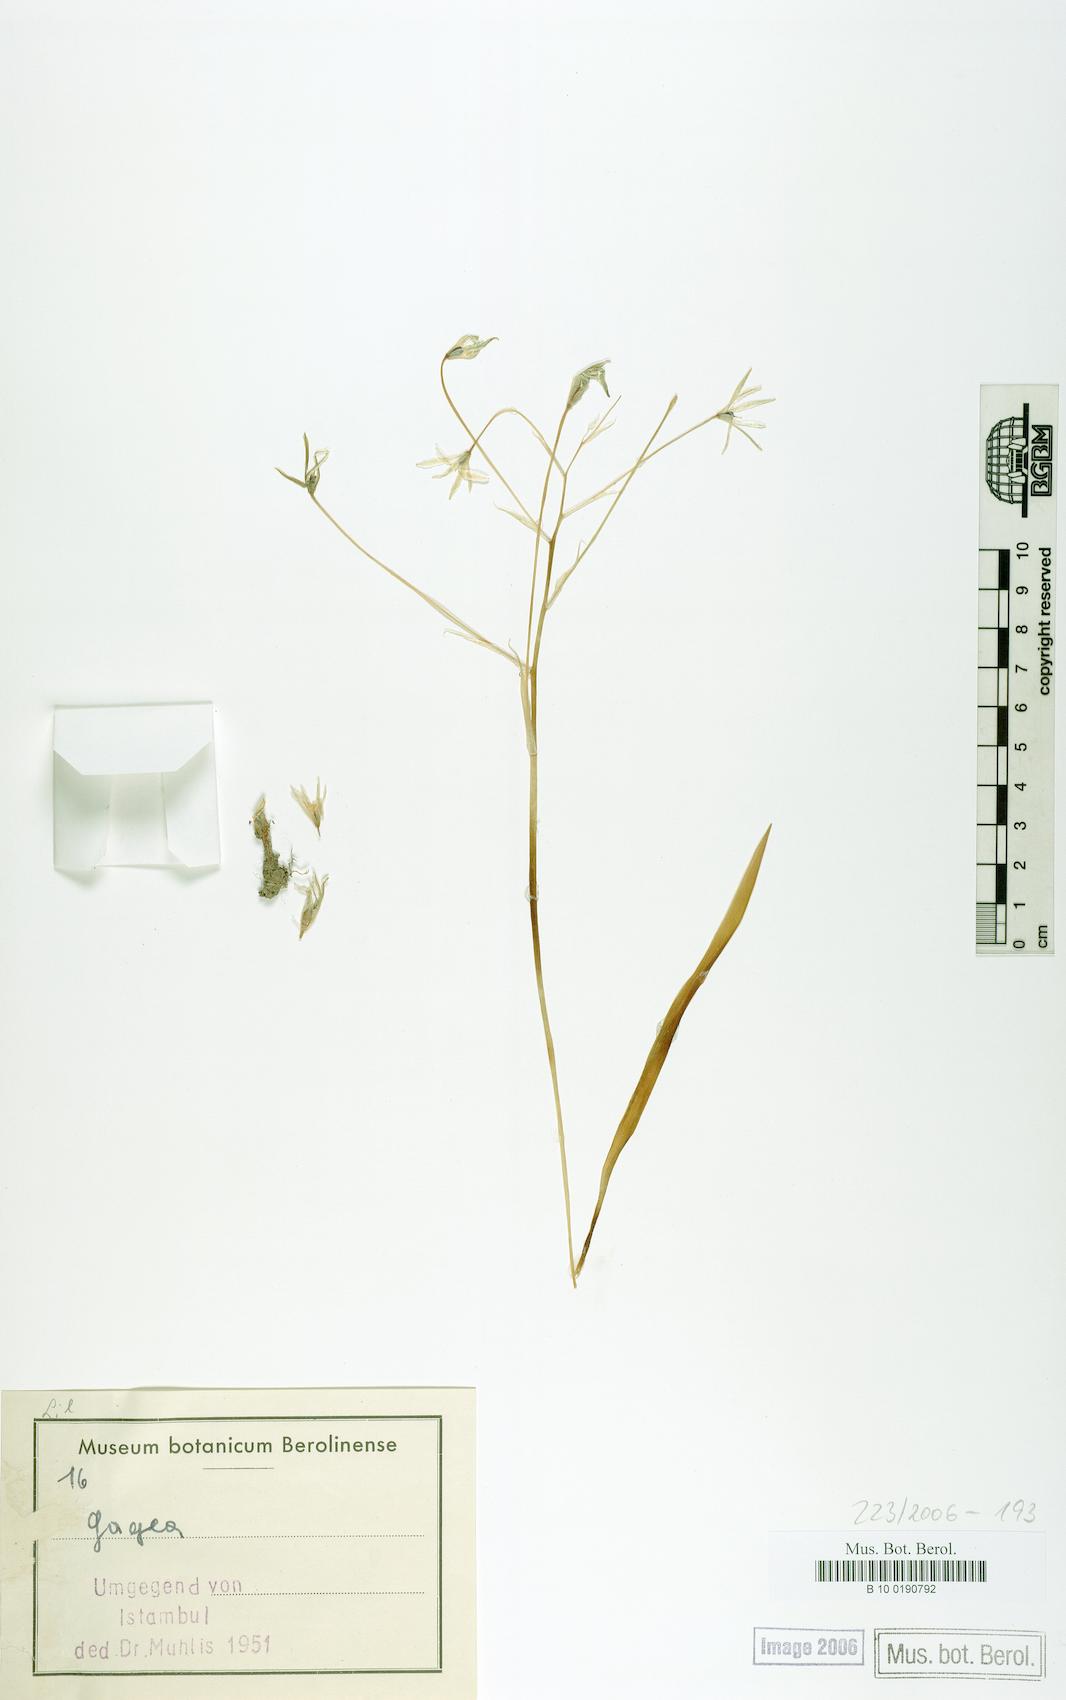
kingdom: Plantae
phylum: Tracheophyta
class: Liliopsida
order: Liliales
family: Liliaceae
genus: Gagea
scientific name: Gagea
